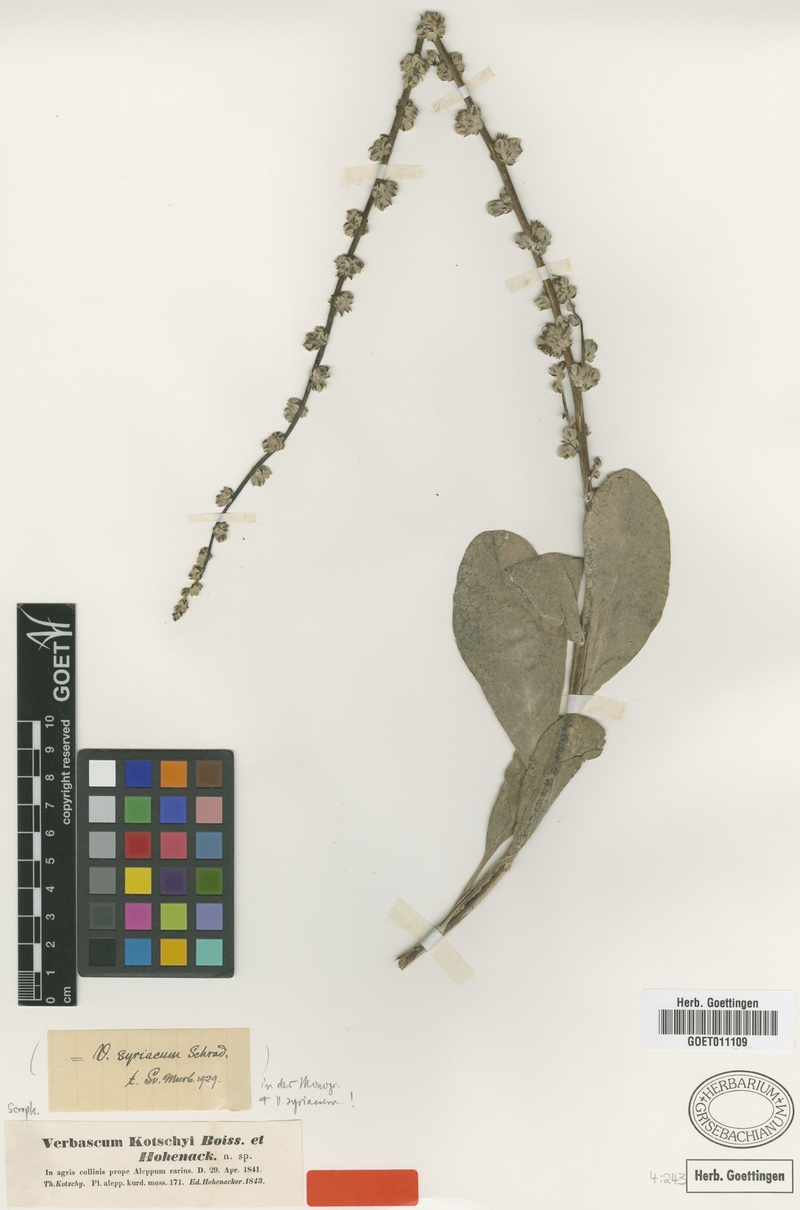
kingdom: Plantae
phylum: Tracheophyta
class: Magnoliopsida
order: Lamiales
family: Scrophulariaceae
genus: Verbascum
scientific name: Verbascum kotschyi
